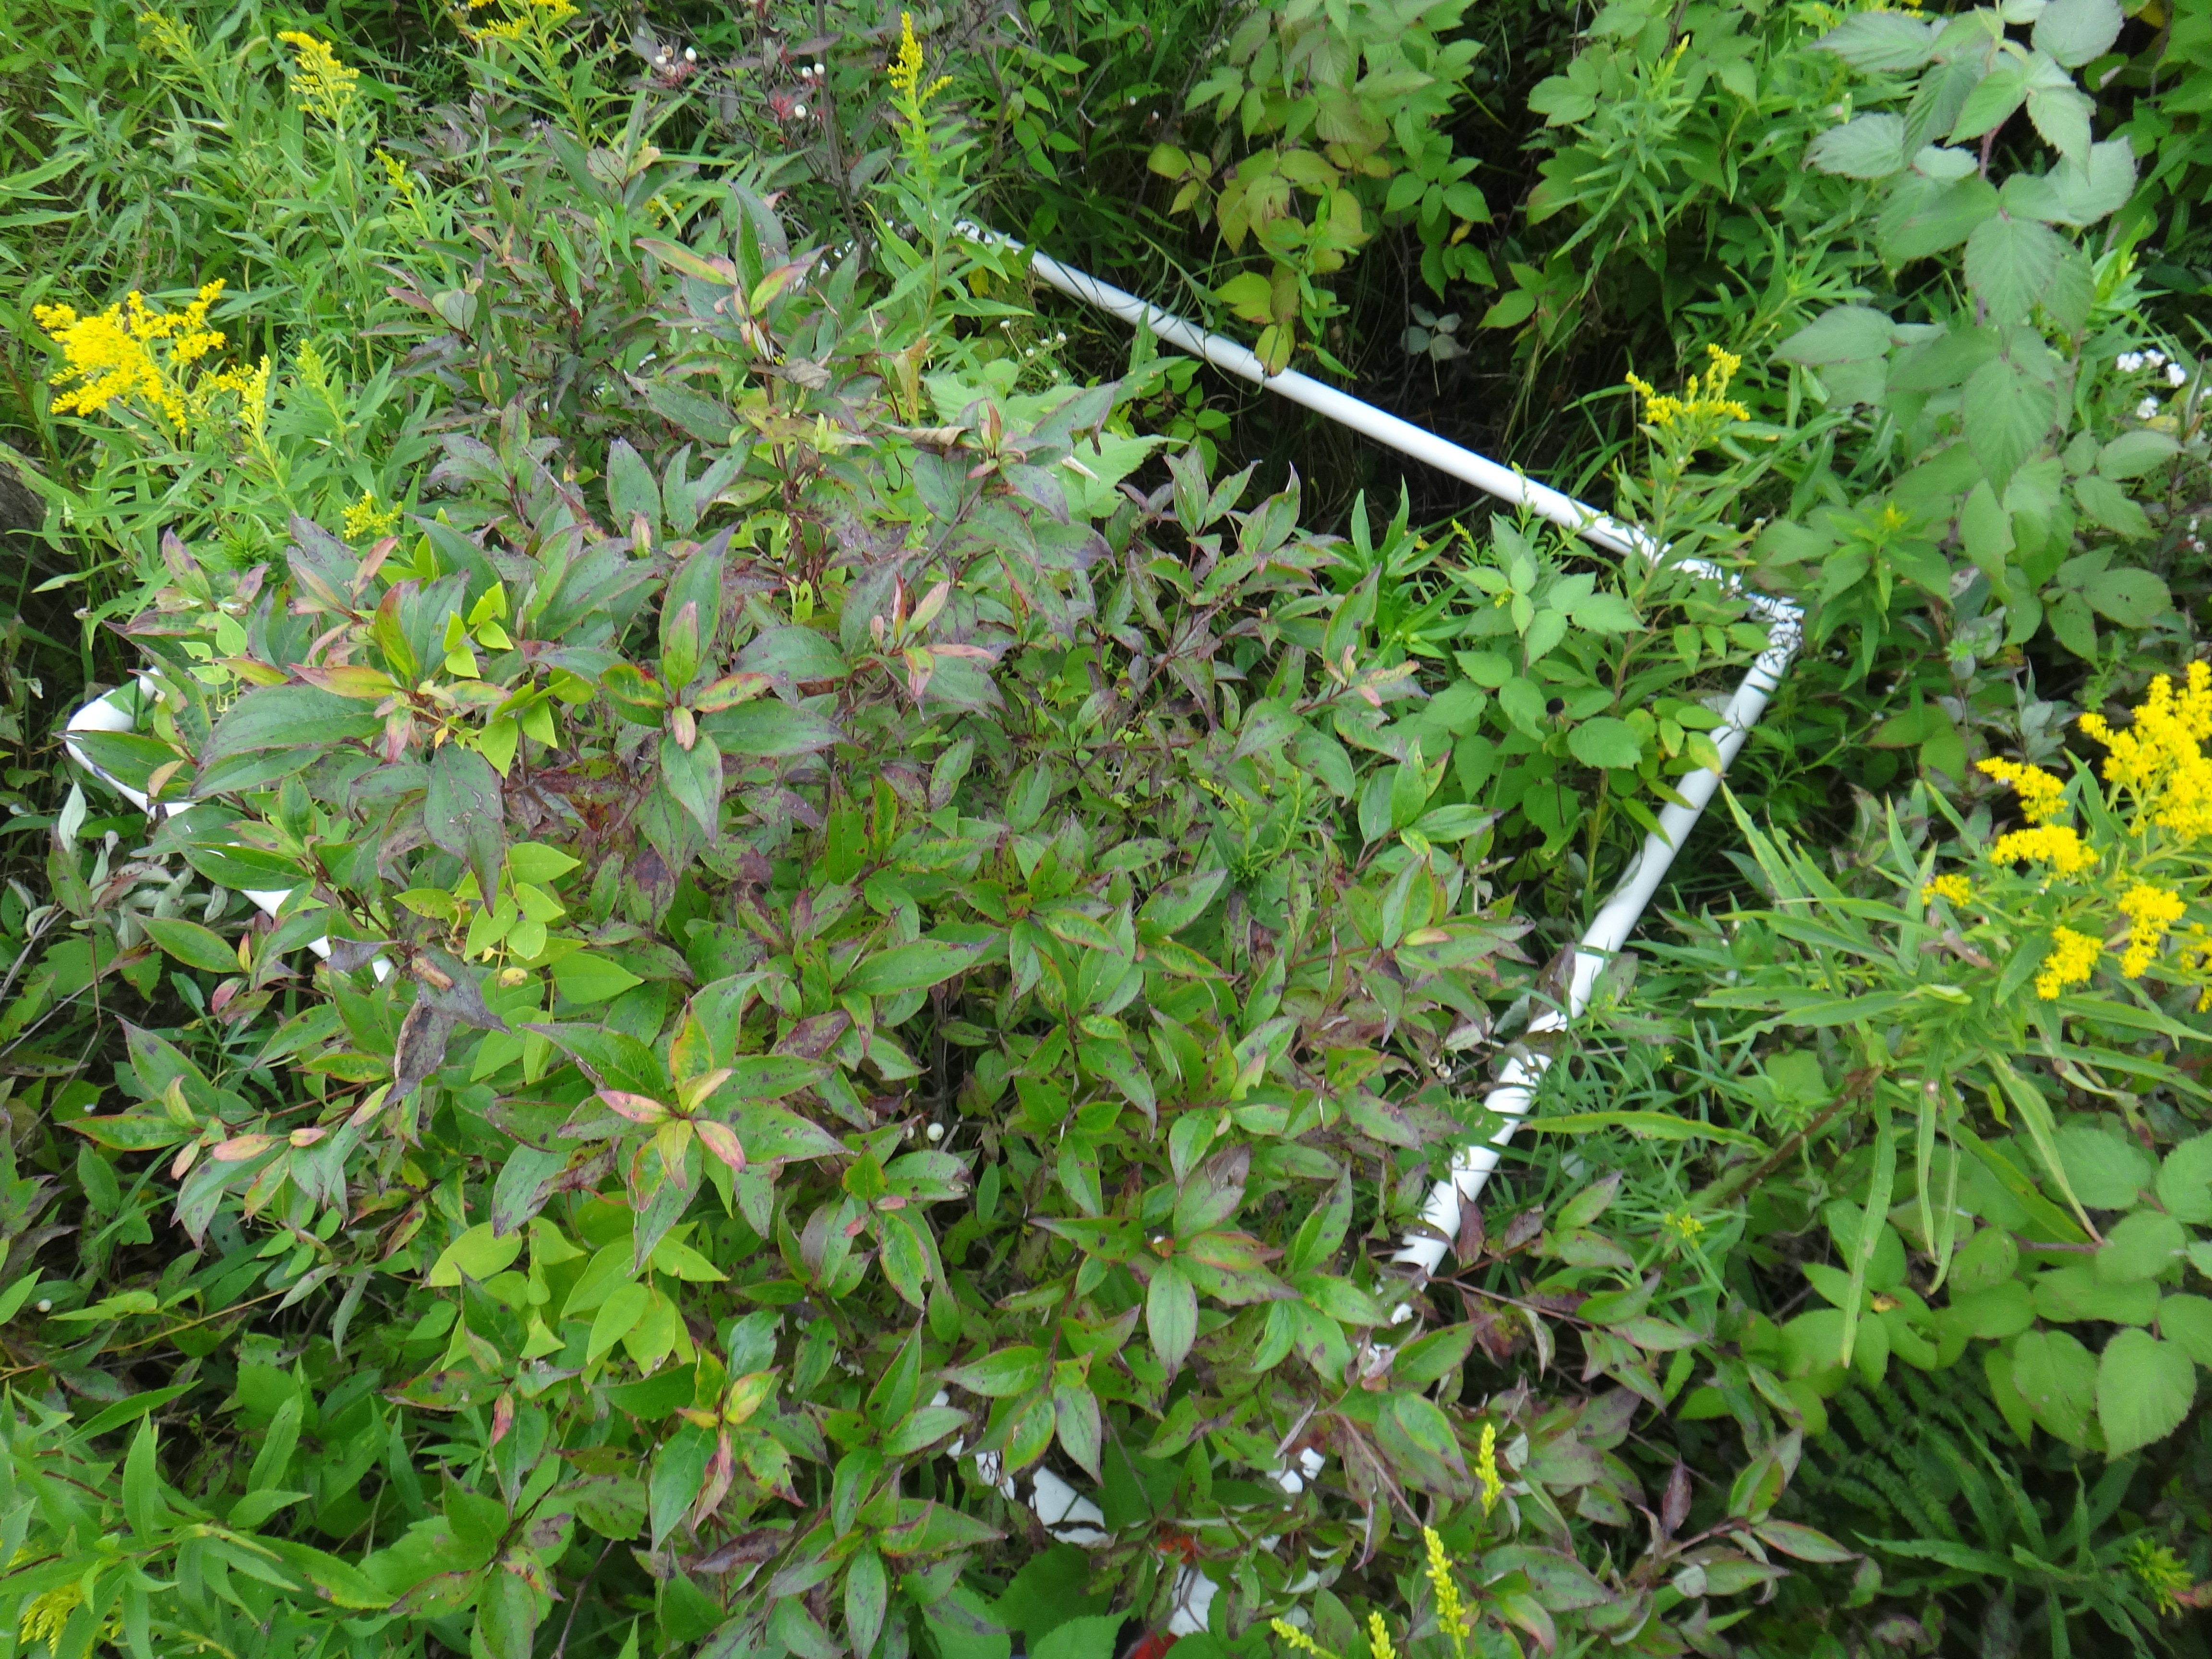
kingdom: Plantae
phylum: Tracheophyta
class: Liliopsida
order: Poales
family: Cyperaceae
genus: Carex
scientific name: Carex stricta
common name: Hummock sedge
